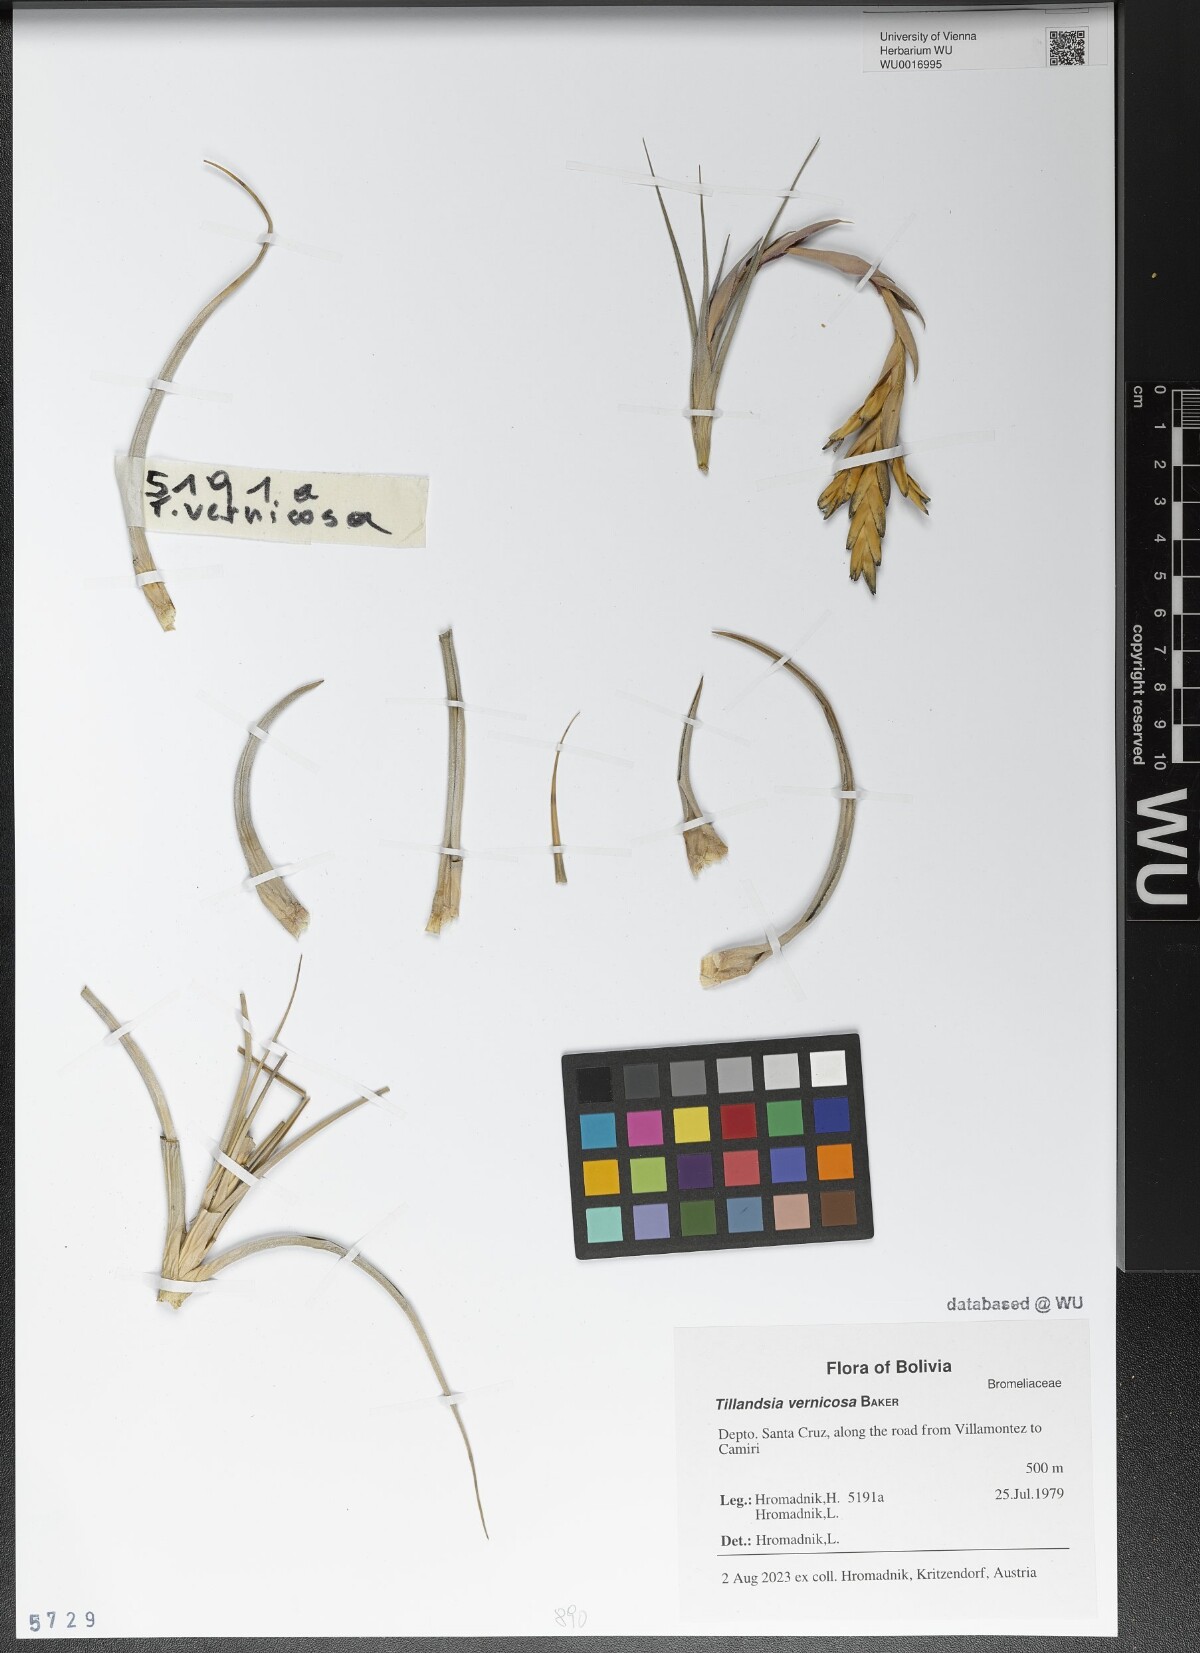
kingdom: Plantae
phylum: Tracheophyta
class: Liliopsida
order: Poales
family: Bromeliaceae
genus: Tillandsia
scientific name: Tillandsia vernicosa
